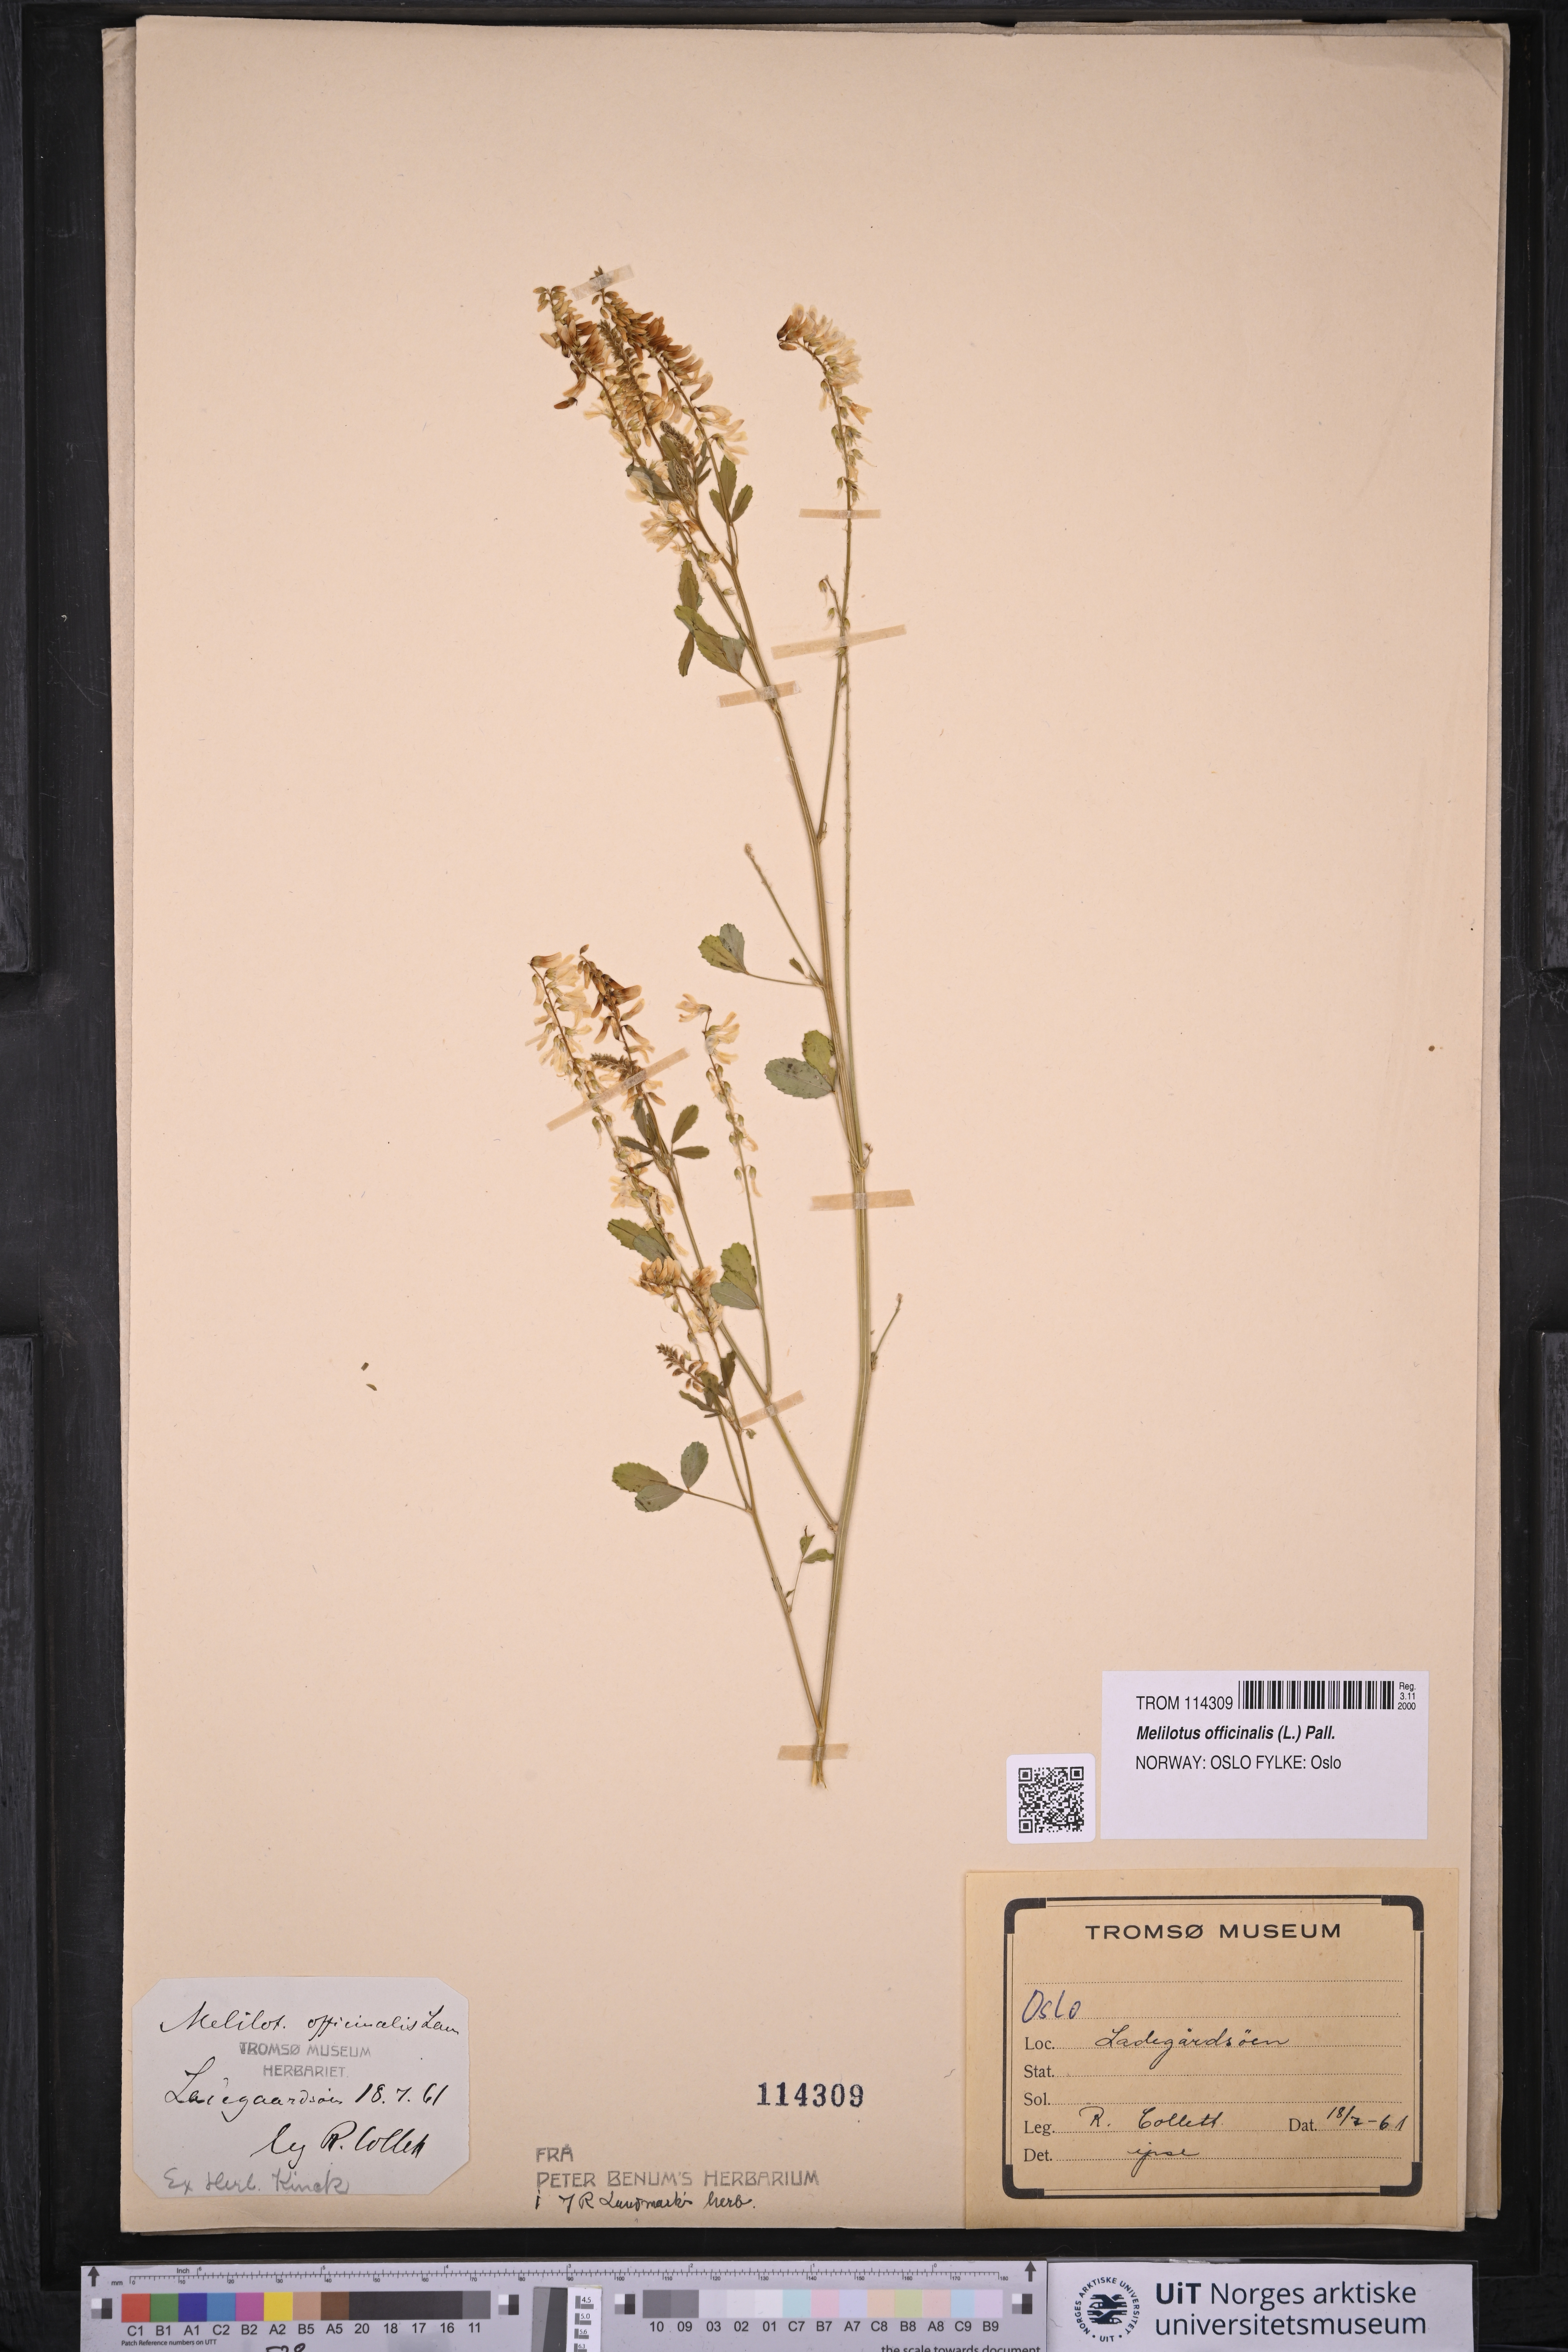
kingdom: Plantae
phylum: Tracheophyta
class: Magnoliopsida
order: Fabales
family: Fabaceae
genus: Melilotus
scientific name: Melilotus officinalis
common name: Sweetclover
